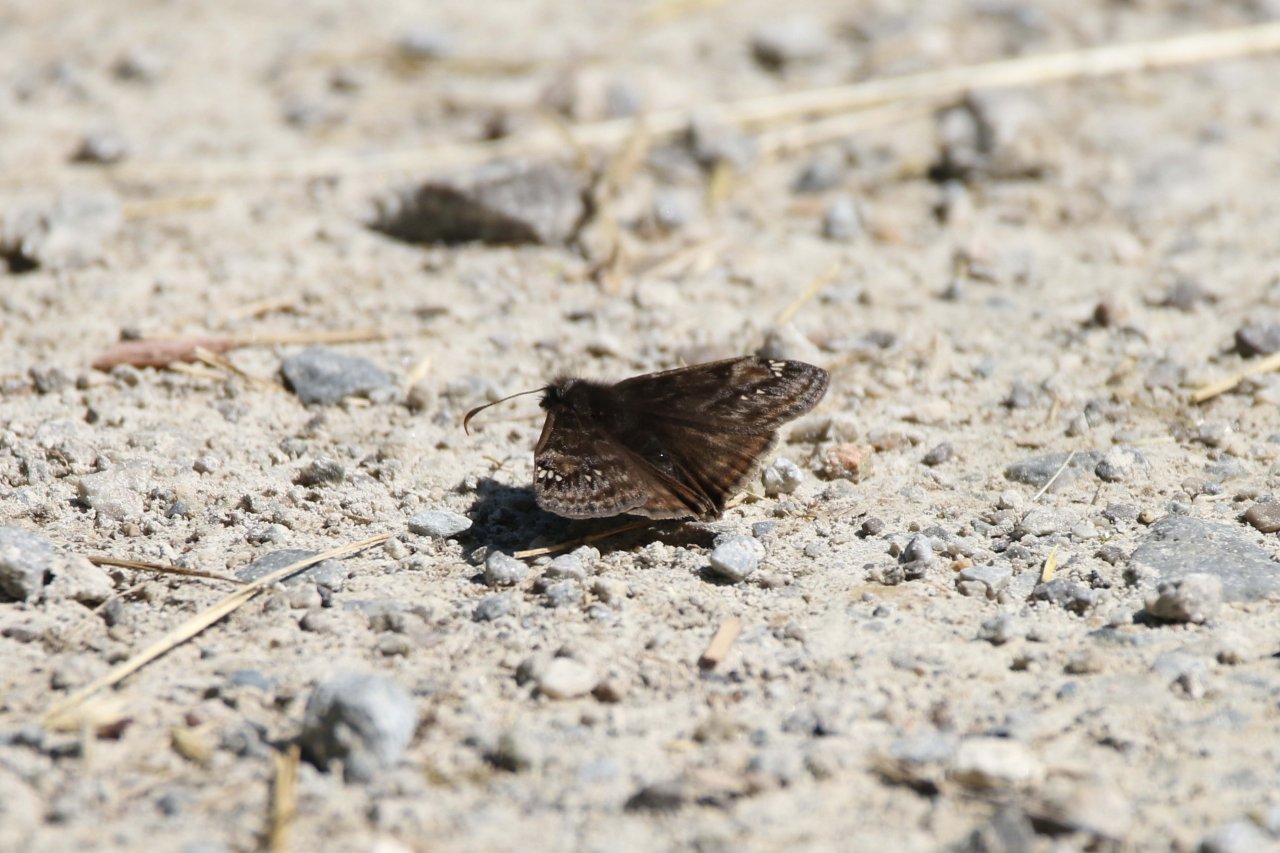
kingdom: Animalia
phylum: Arthropoda
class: Insecta
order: Lepidoptera
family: Hesperiidae
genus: Gesta
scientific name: Gesta
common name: Wild Indigo Duskywing
